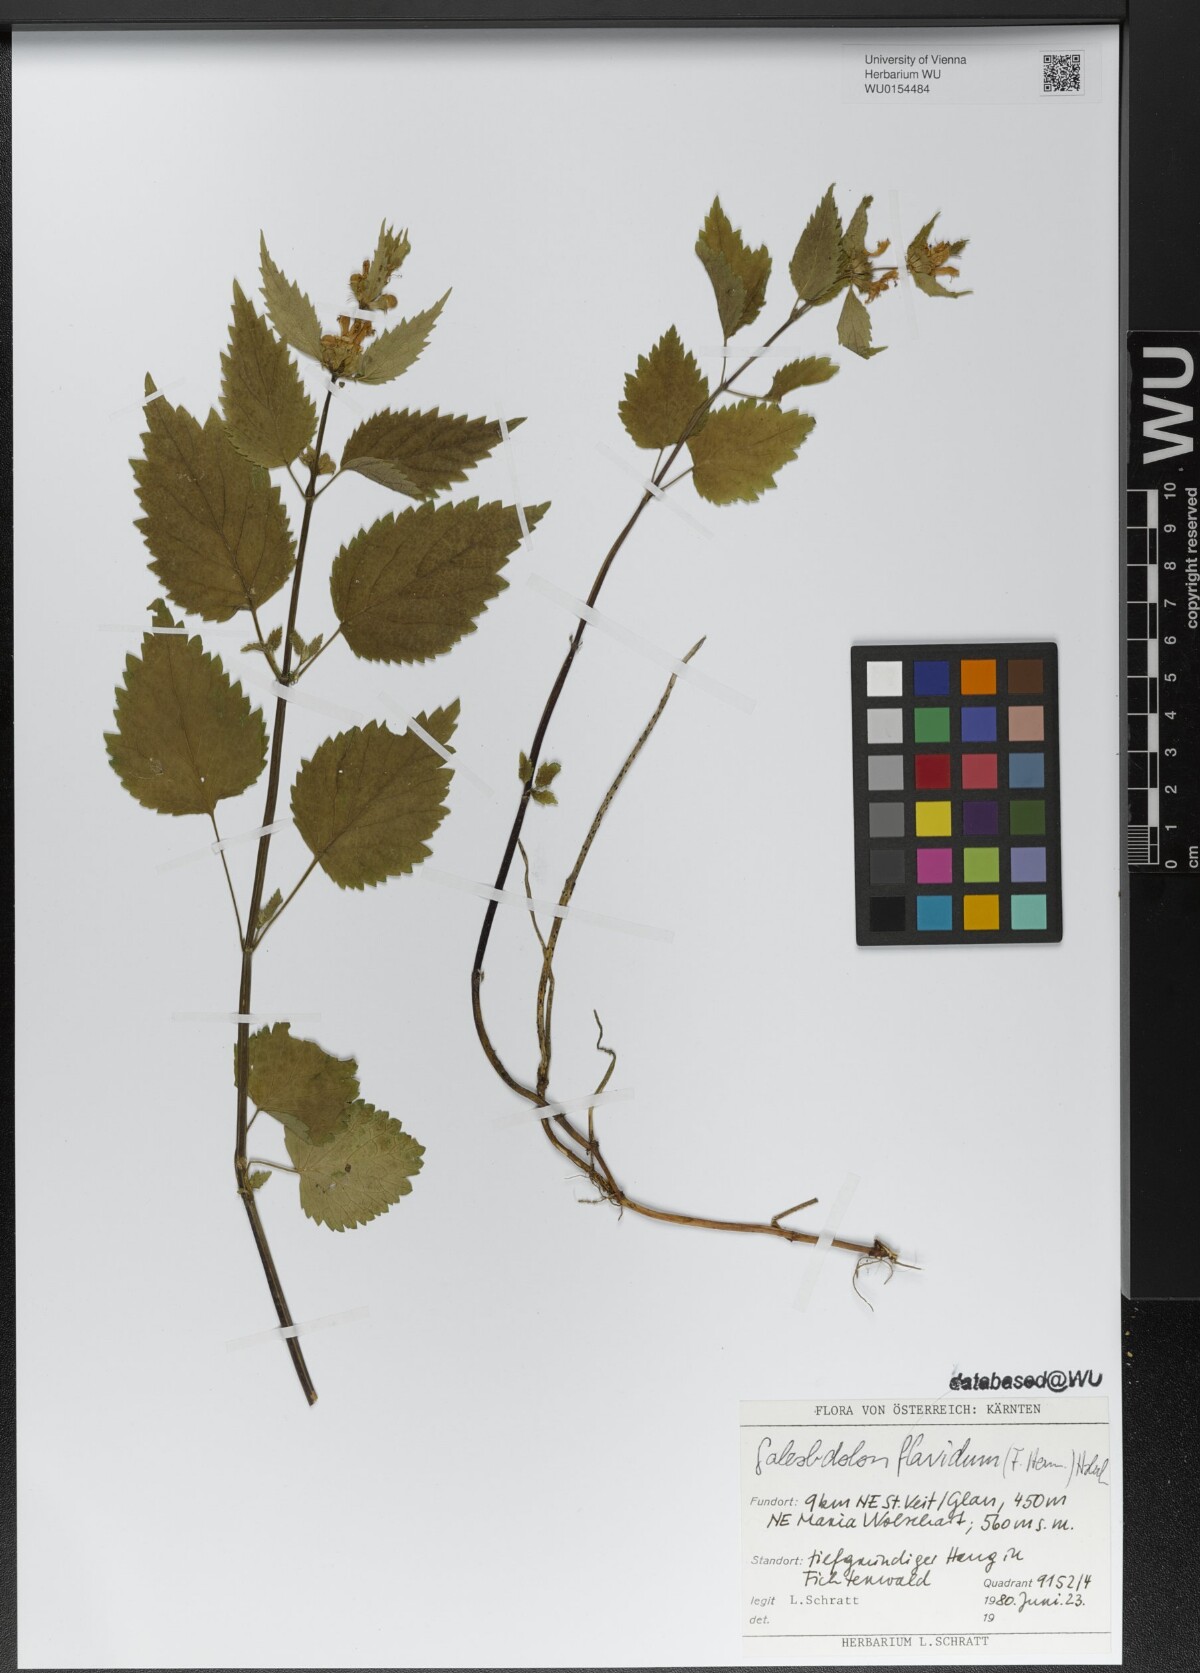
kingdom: Plantae
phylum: Tracheophyta
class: Magnoliopsida
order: Lamiales
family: Lamiaceae
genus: Lamium
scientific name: Lamium galeobdolon
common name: Yellow archangel
